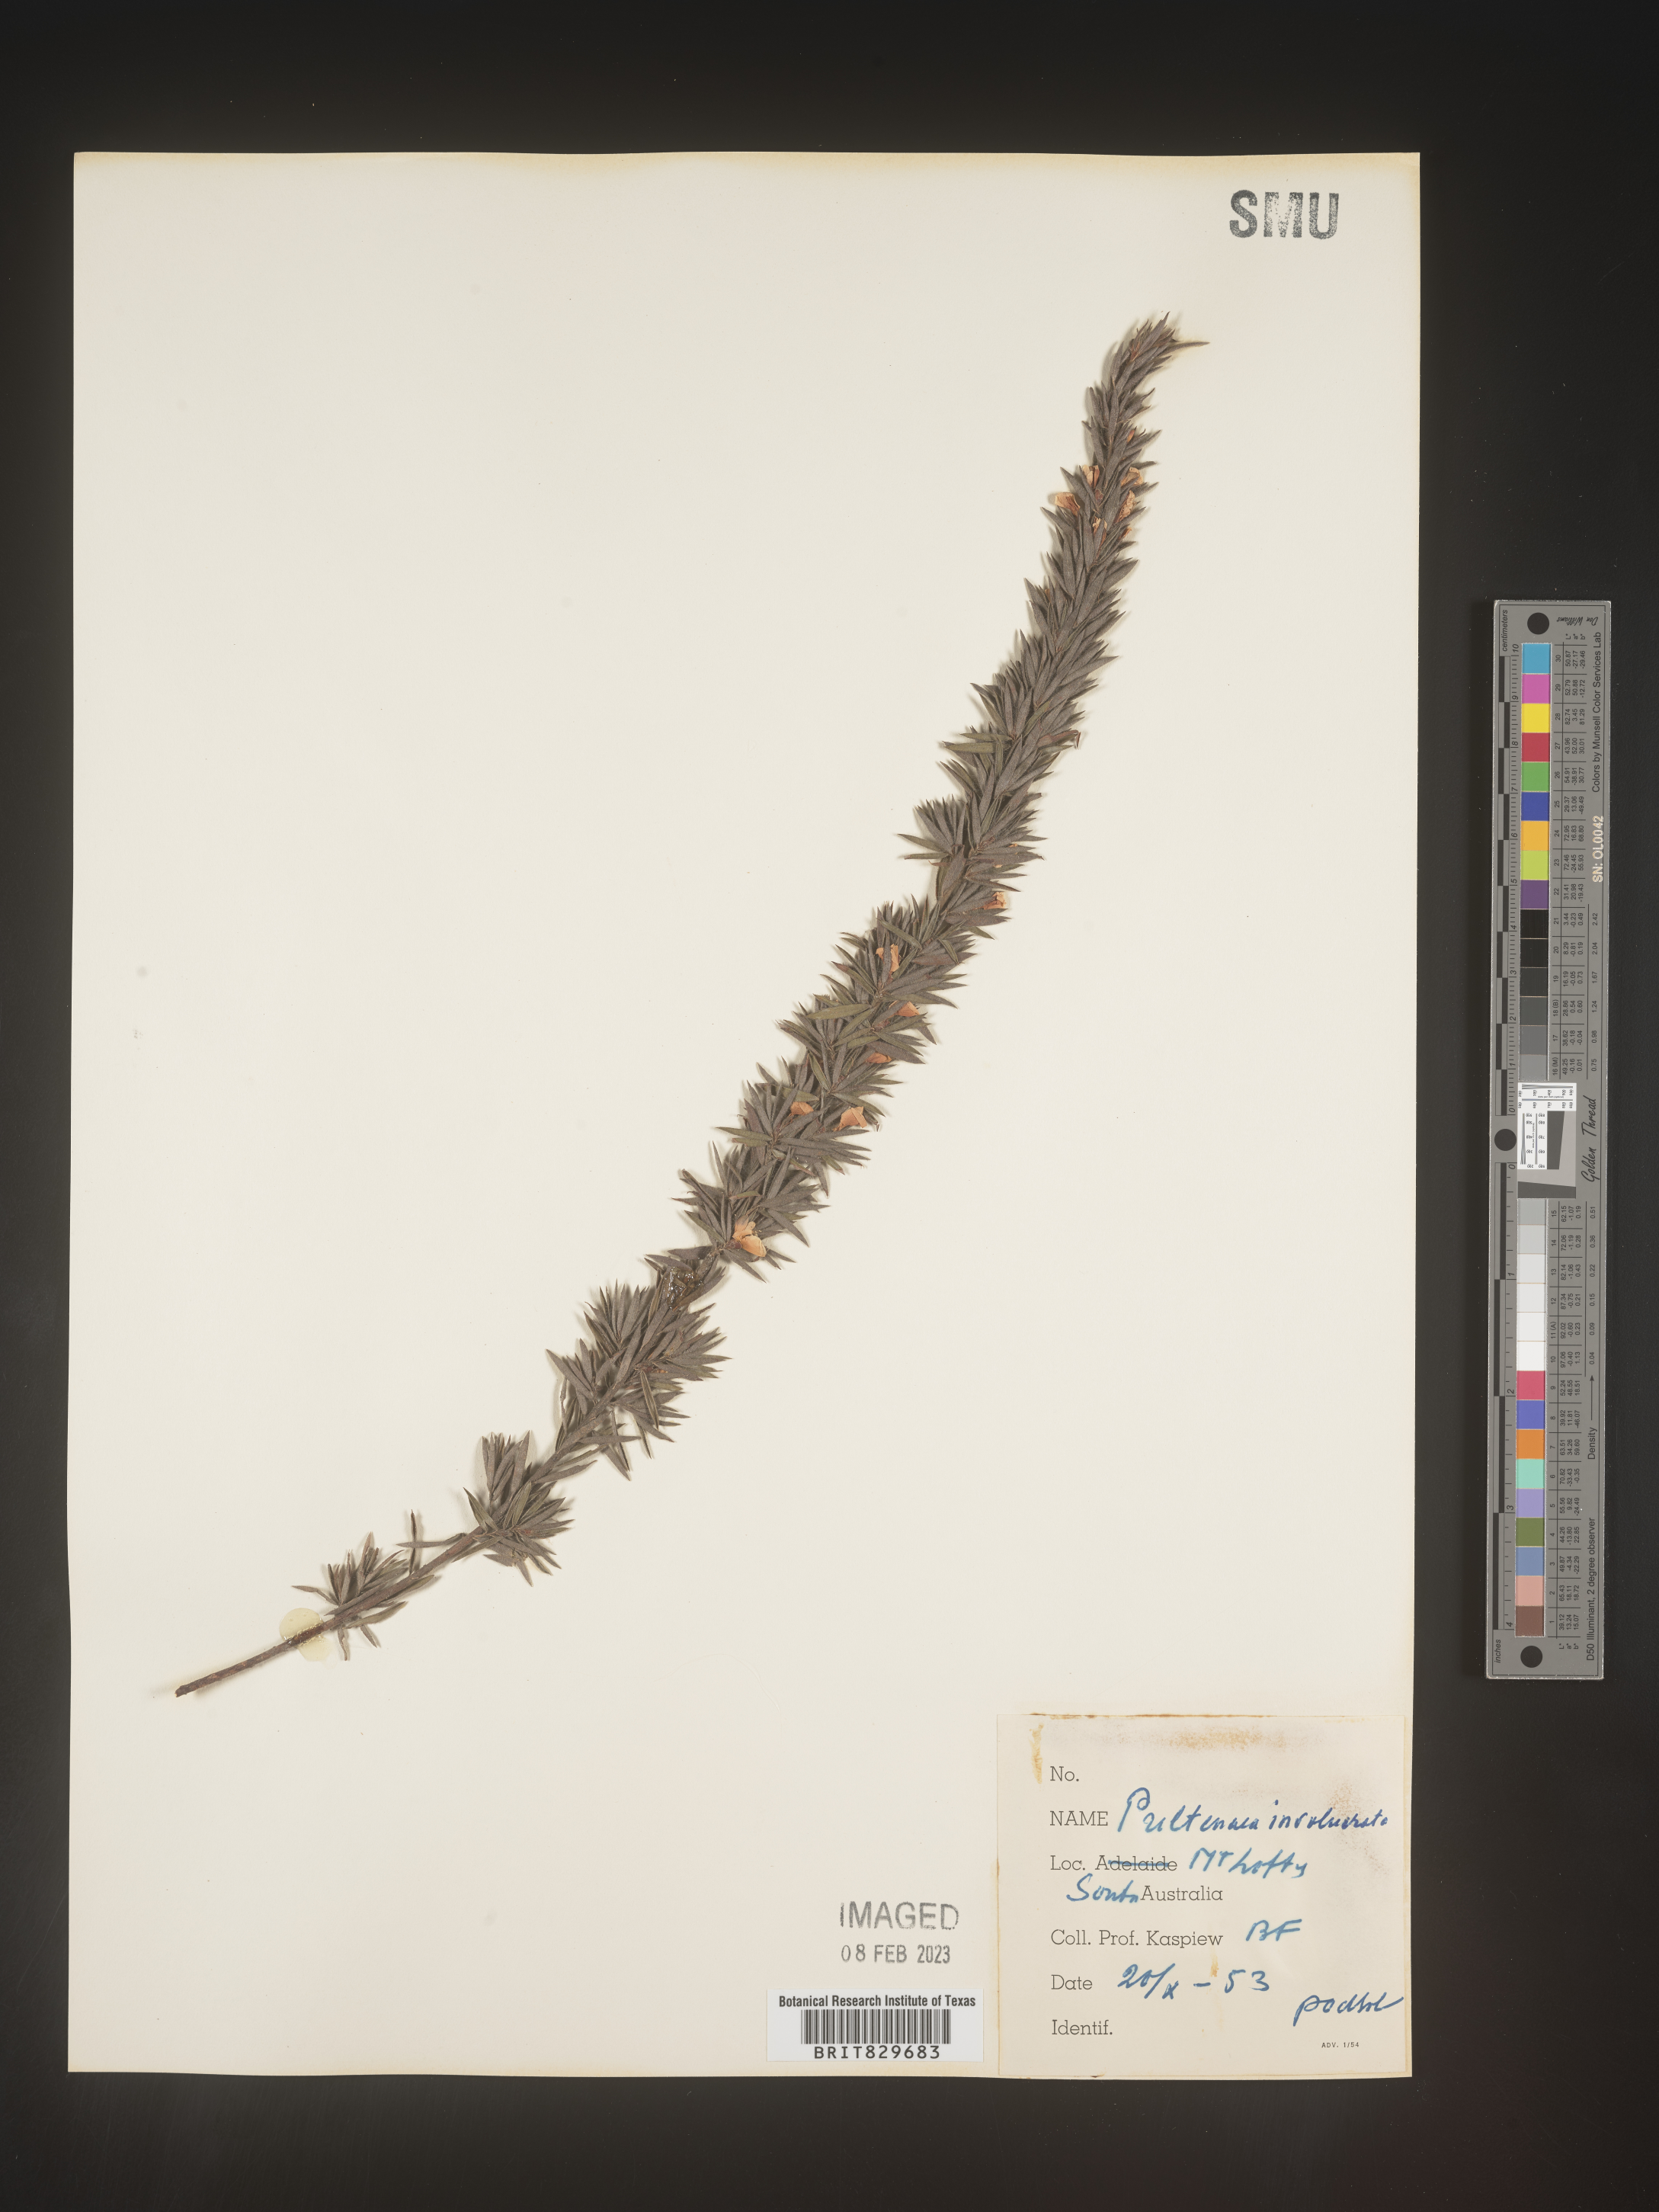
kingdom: Plantae
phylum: Tracheophyta
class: Magnoliopsida
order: Fabales
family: Fabaceae
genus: Pultenaea
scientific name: Pultenaea
